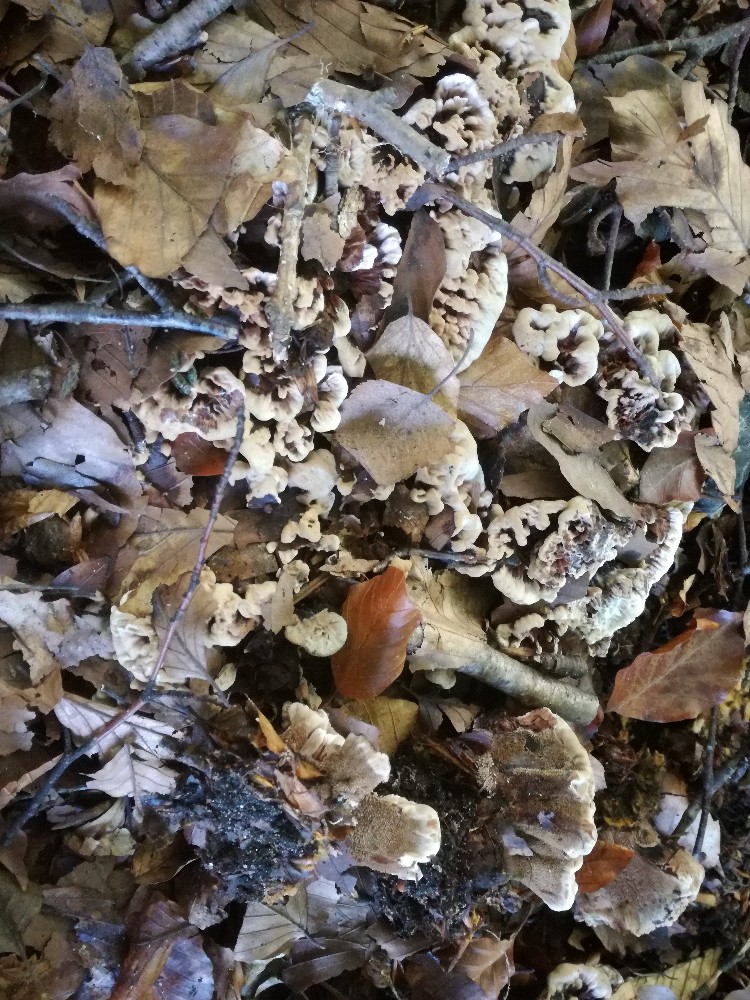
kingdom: Fungi
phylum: Basidiomycota
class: Agaricomycetes
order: Thelephorales
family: Bankeraceae
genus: Hydnellum
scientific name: Hydnellum concrescens
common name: bæltet korkpigsvamp
